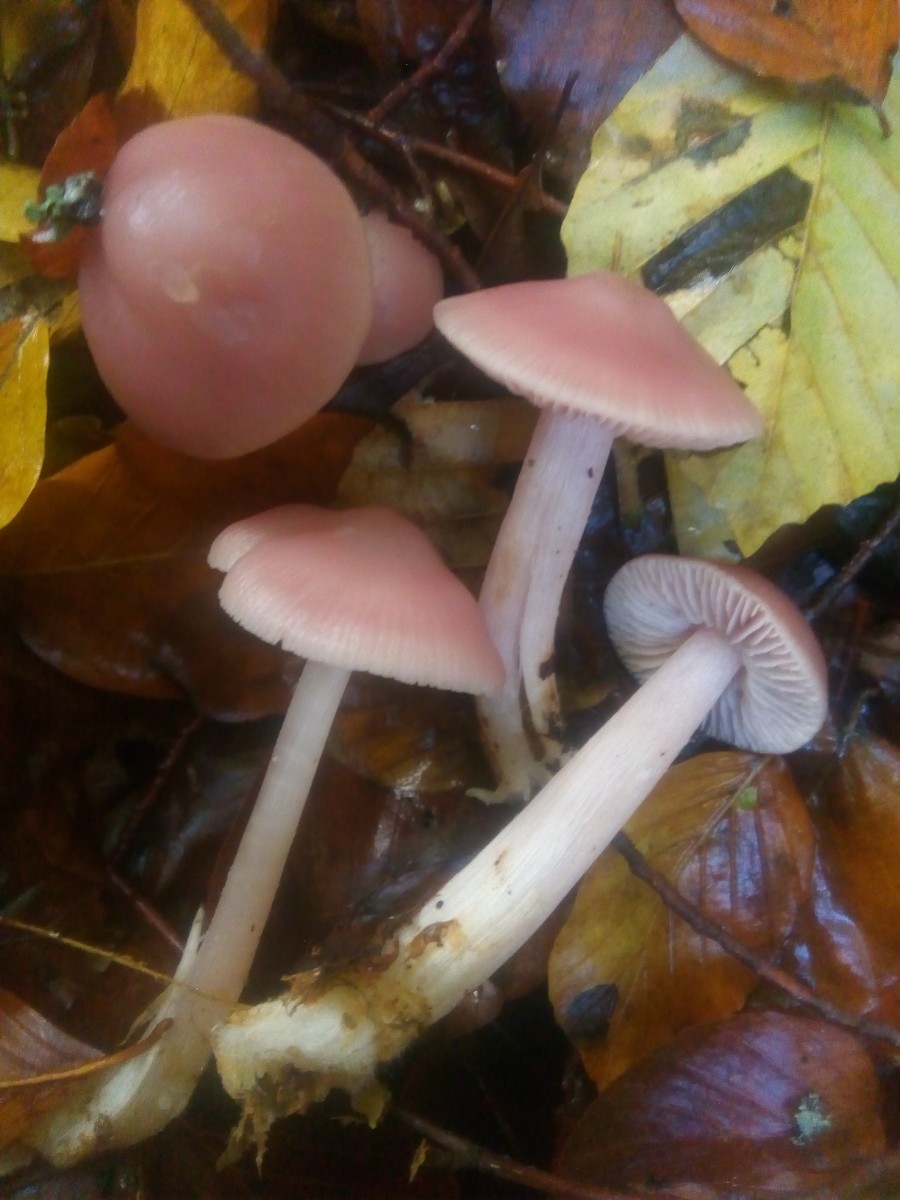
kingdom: Fungi
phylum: Basidiomycota
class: Agaricomycetes
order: Agaricales
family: Mycenaceae
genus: Mycena
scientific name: Mycena rosea
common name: rosa huesvamp
